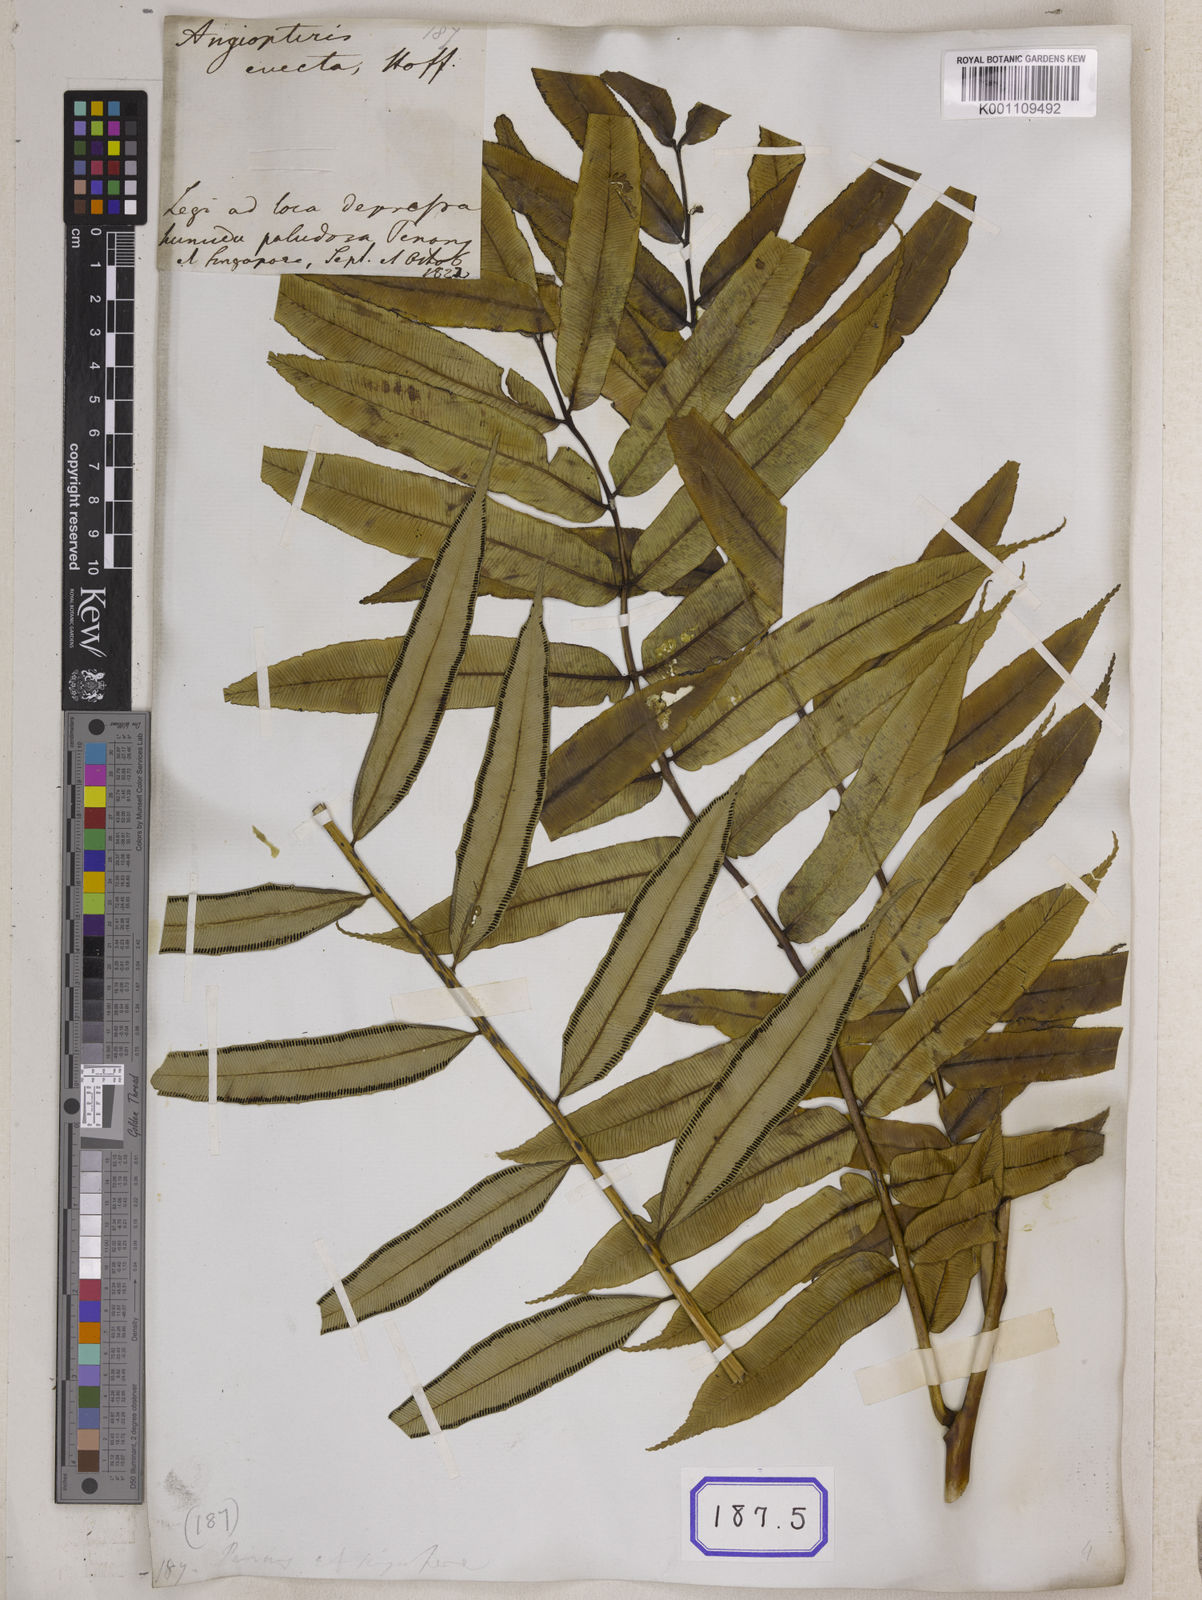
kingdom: Plantae
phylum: Tracheophyta
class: Polypodiopsida
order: Marattiales
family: Marattiaceae
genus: Angiopteris
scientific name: Angiopteris crassipes
